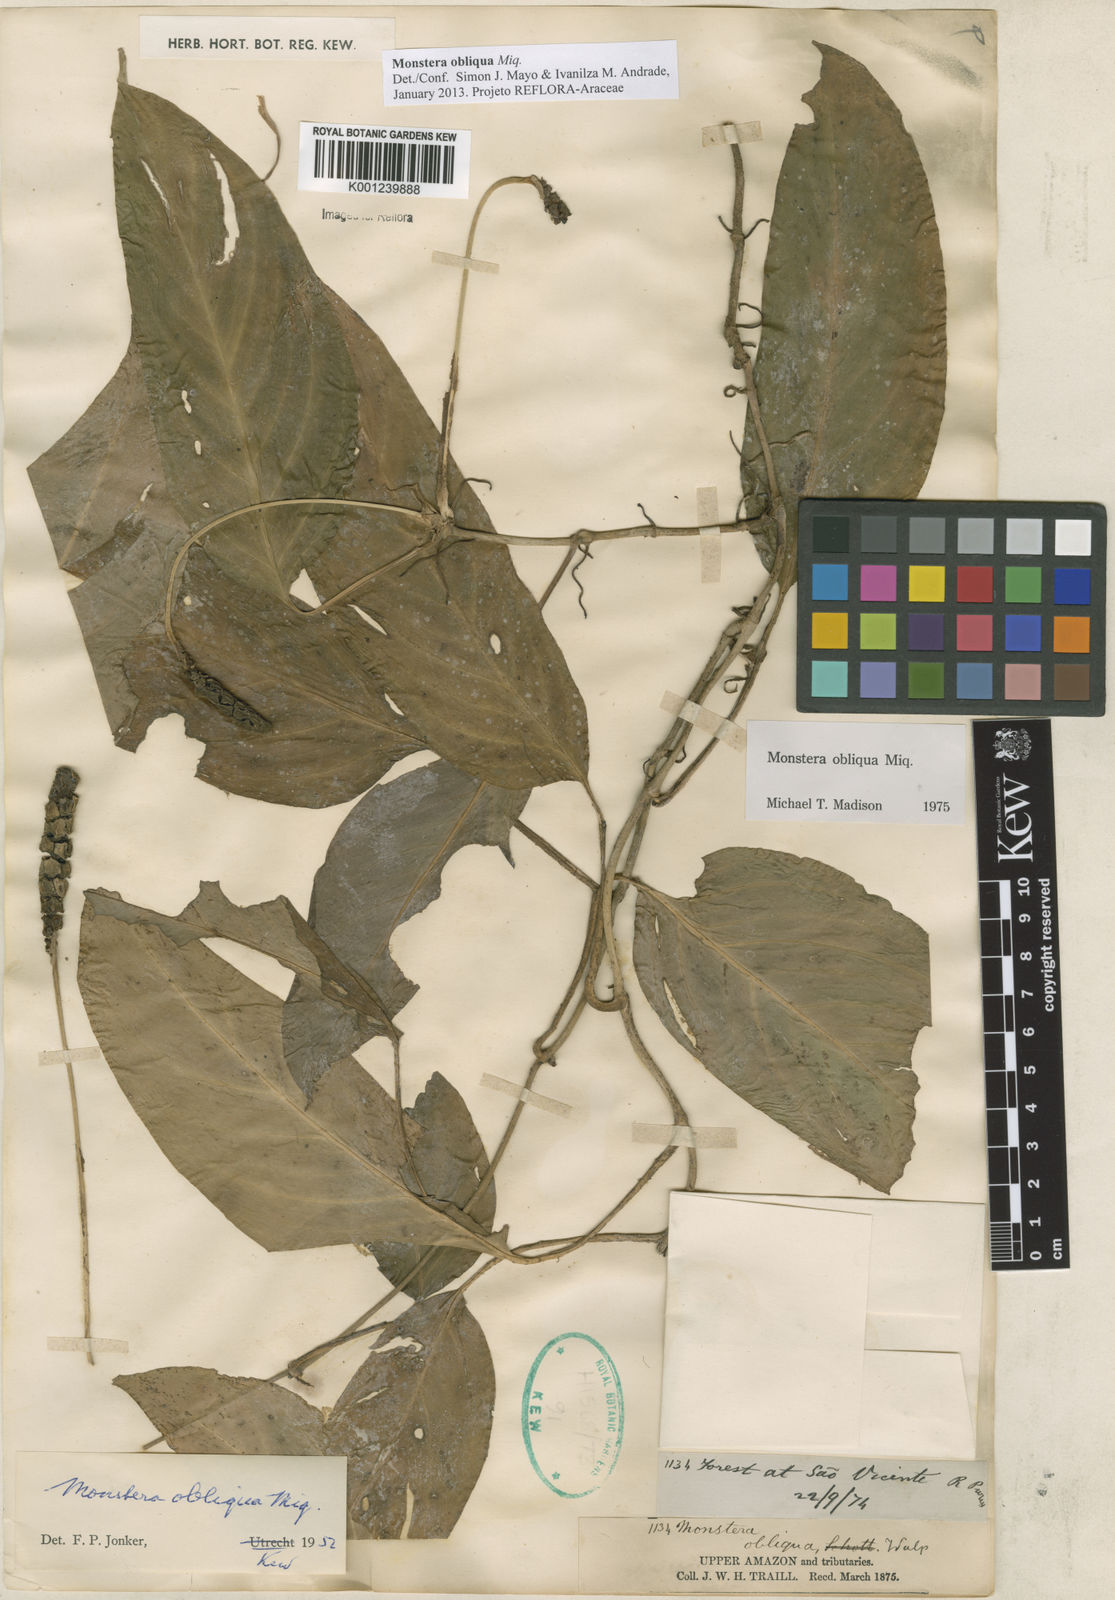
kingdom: Plantae
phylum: Tracheophyta
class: Liliopsida
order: Alismatales
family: Araceae
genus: Monstera
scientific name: Monstera obliqua
